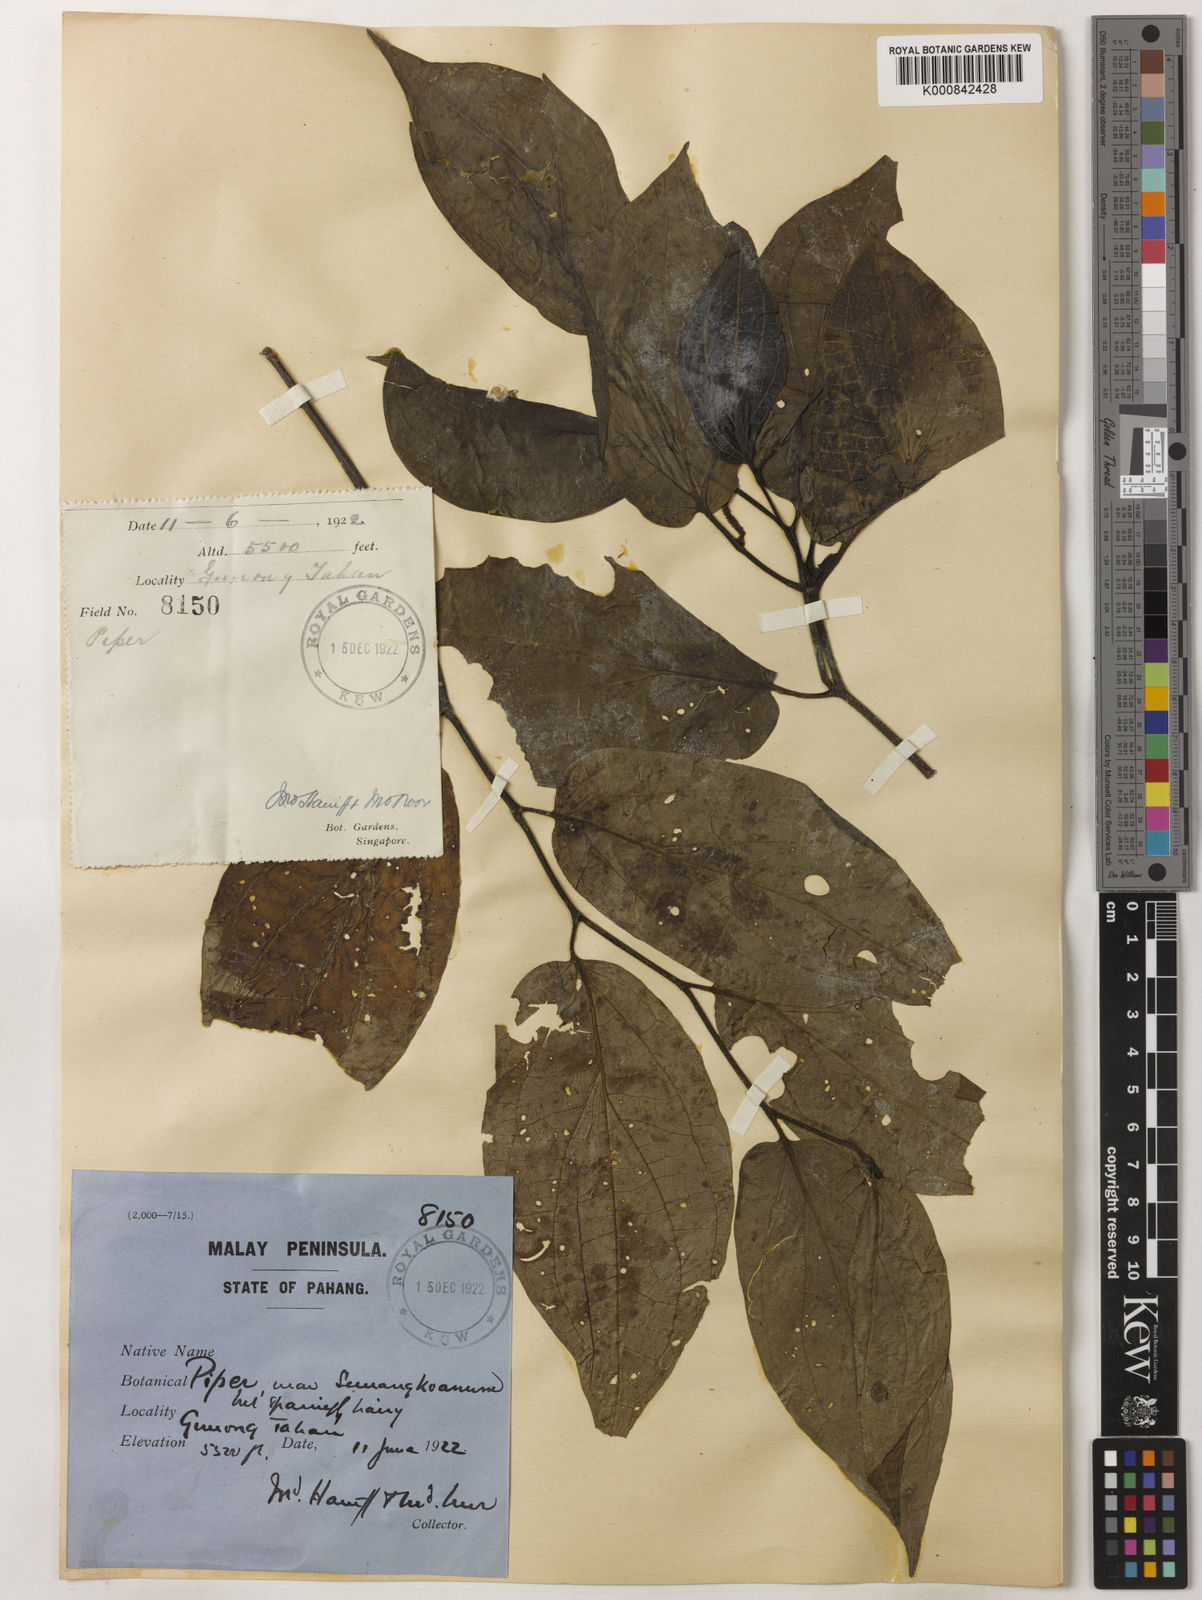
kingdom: Plantae
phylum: Tracheophyta
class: Magnoliopsida
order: Piperales
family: Piperaceae
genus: Piper
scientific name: Piper semangkoanum
